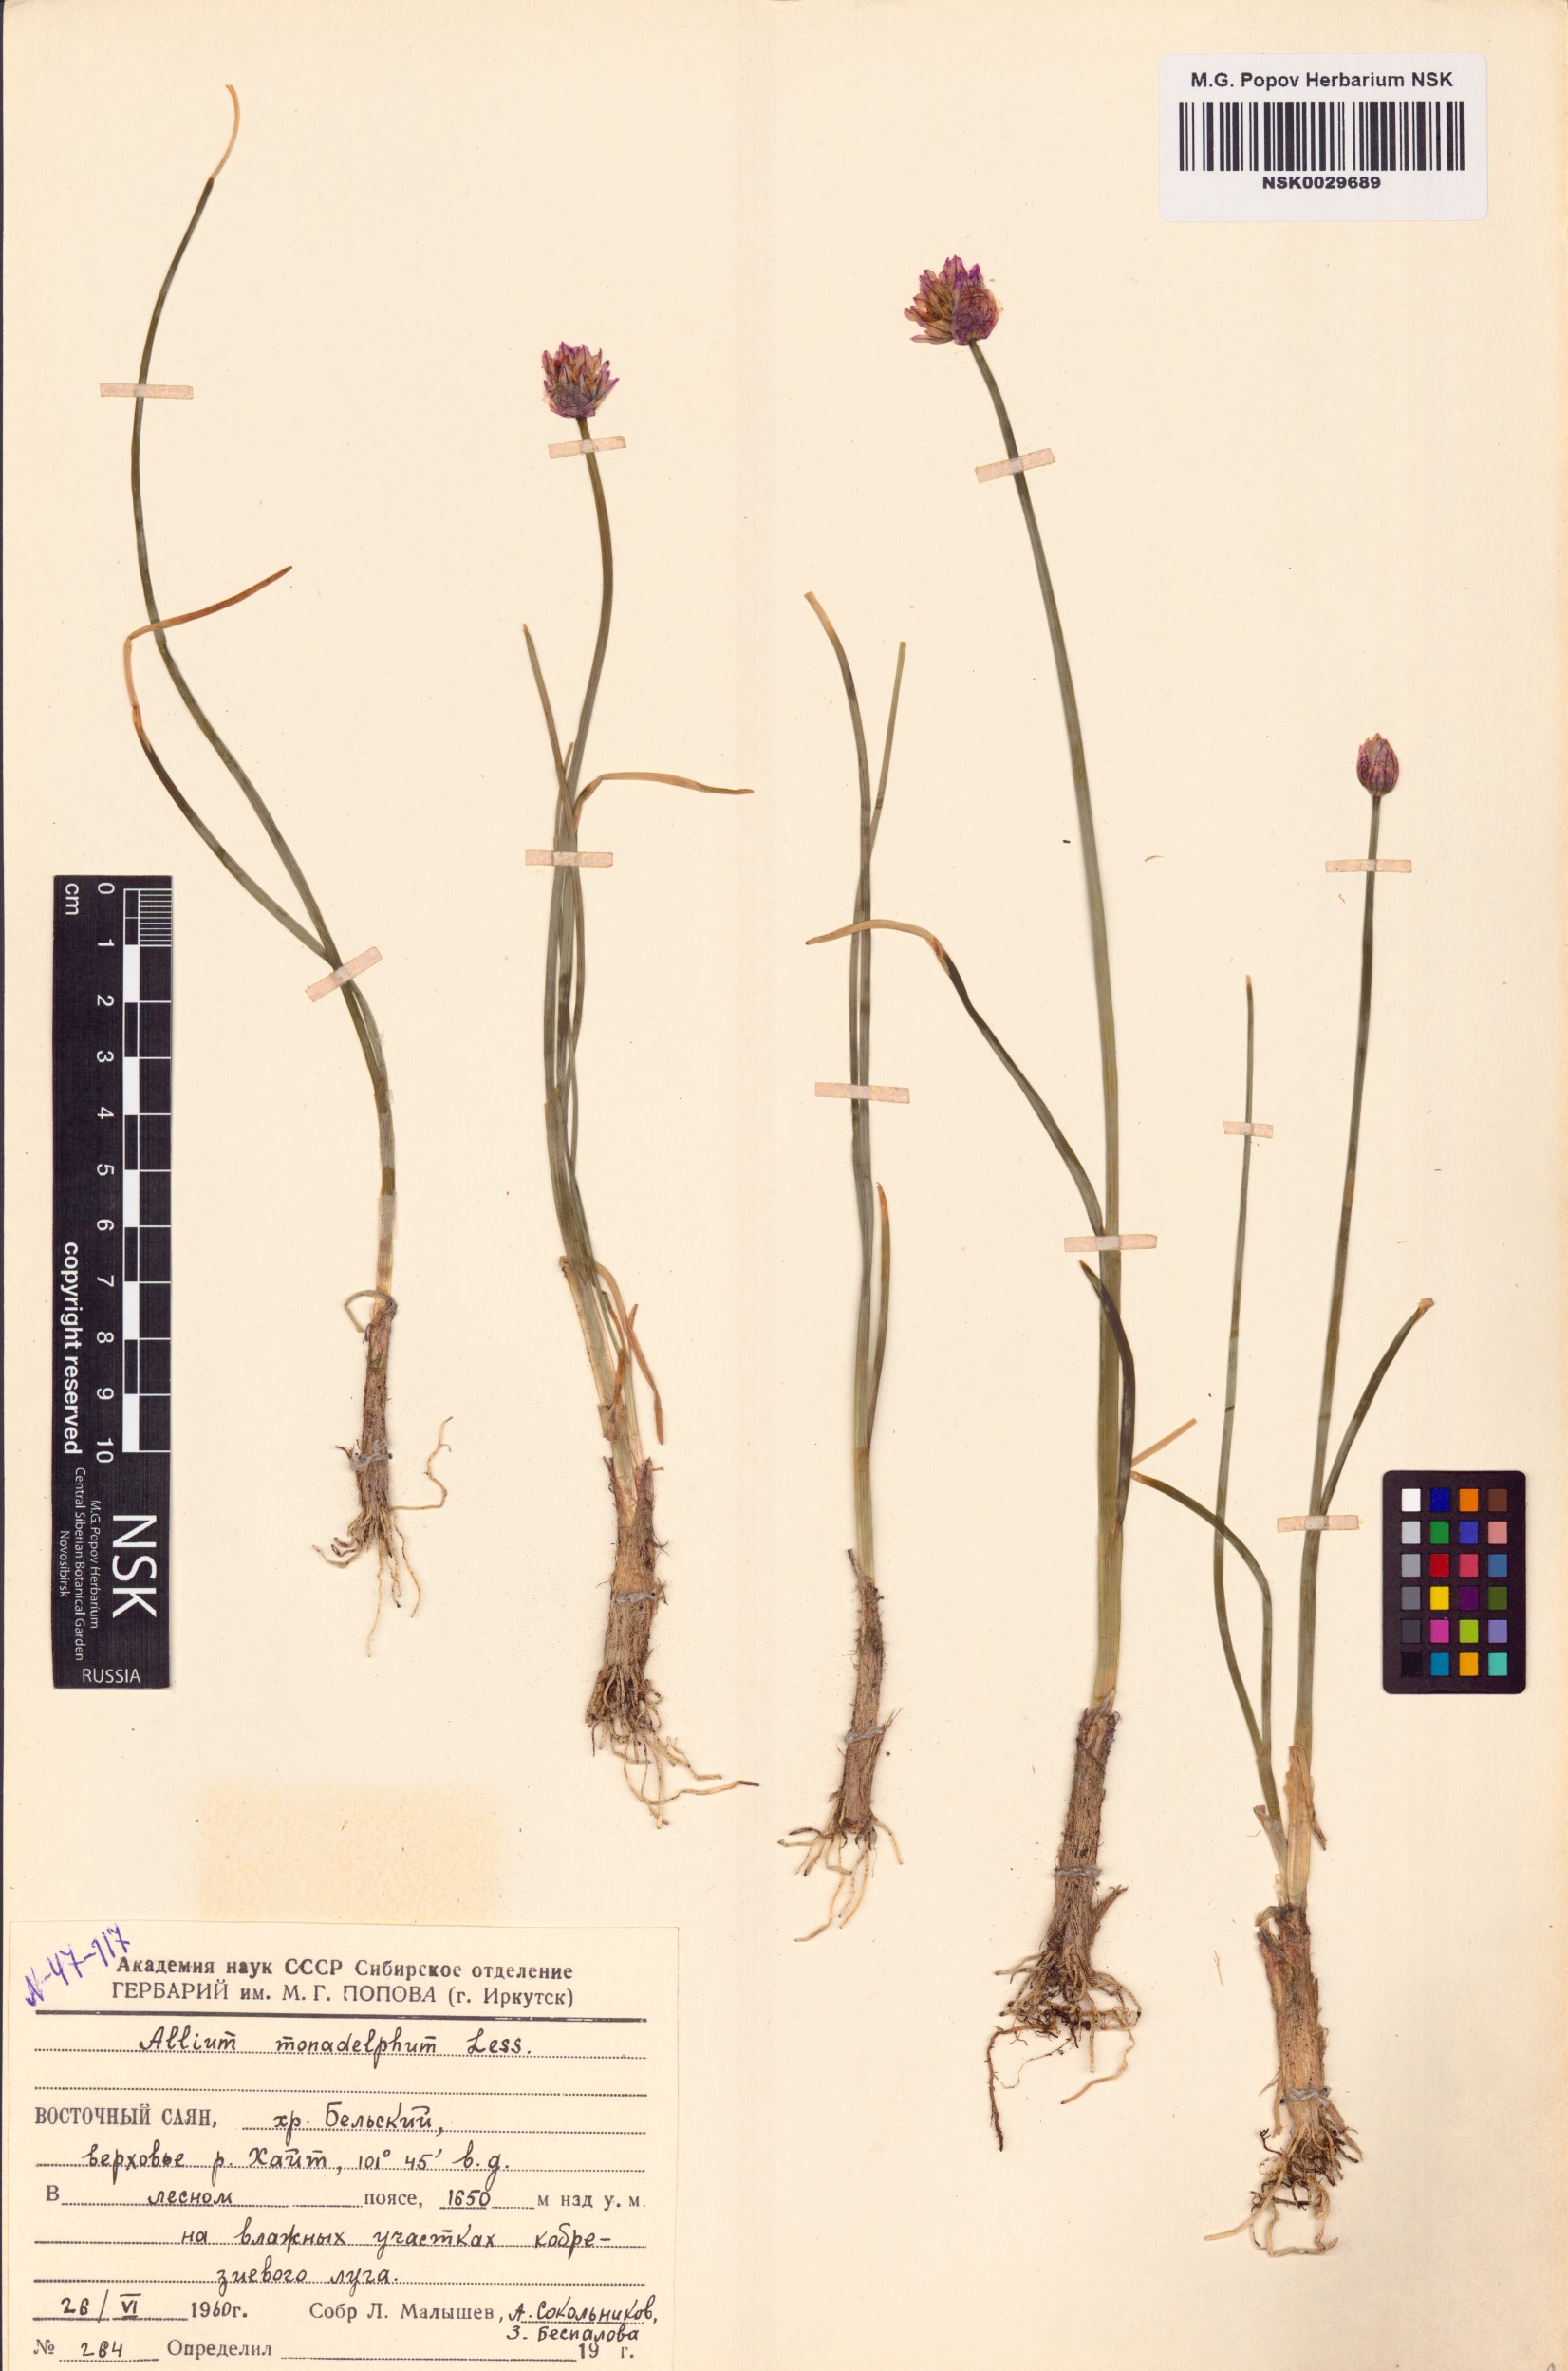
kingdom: Plantae
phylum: Tracheophyta
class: Liliopsida
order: Asparagales
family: Amaryllidaceae
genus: Allium
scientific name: Allium atrosanguineum
